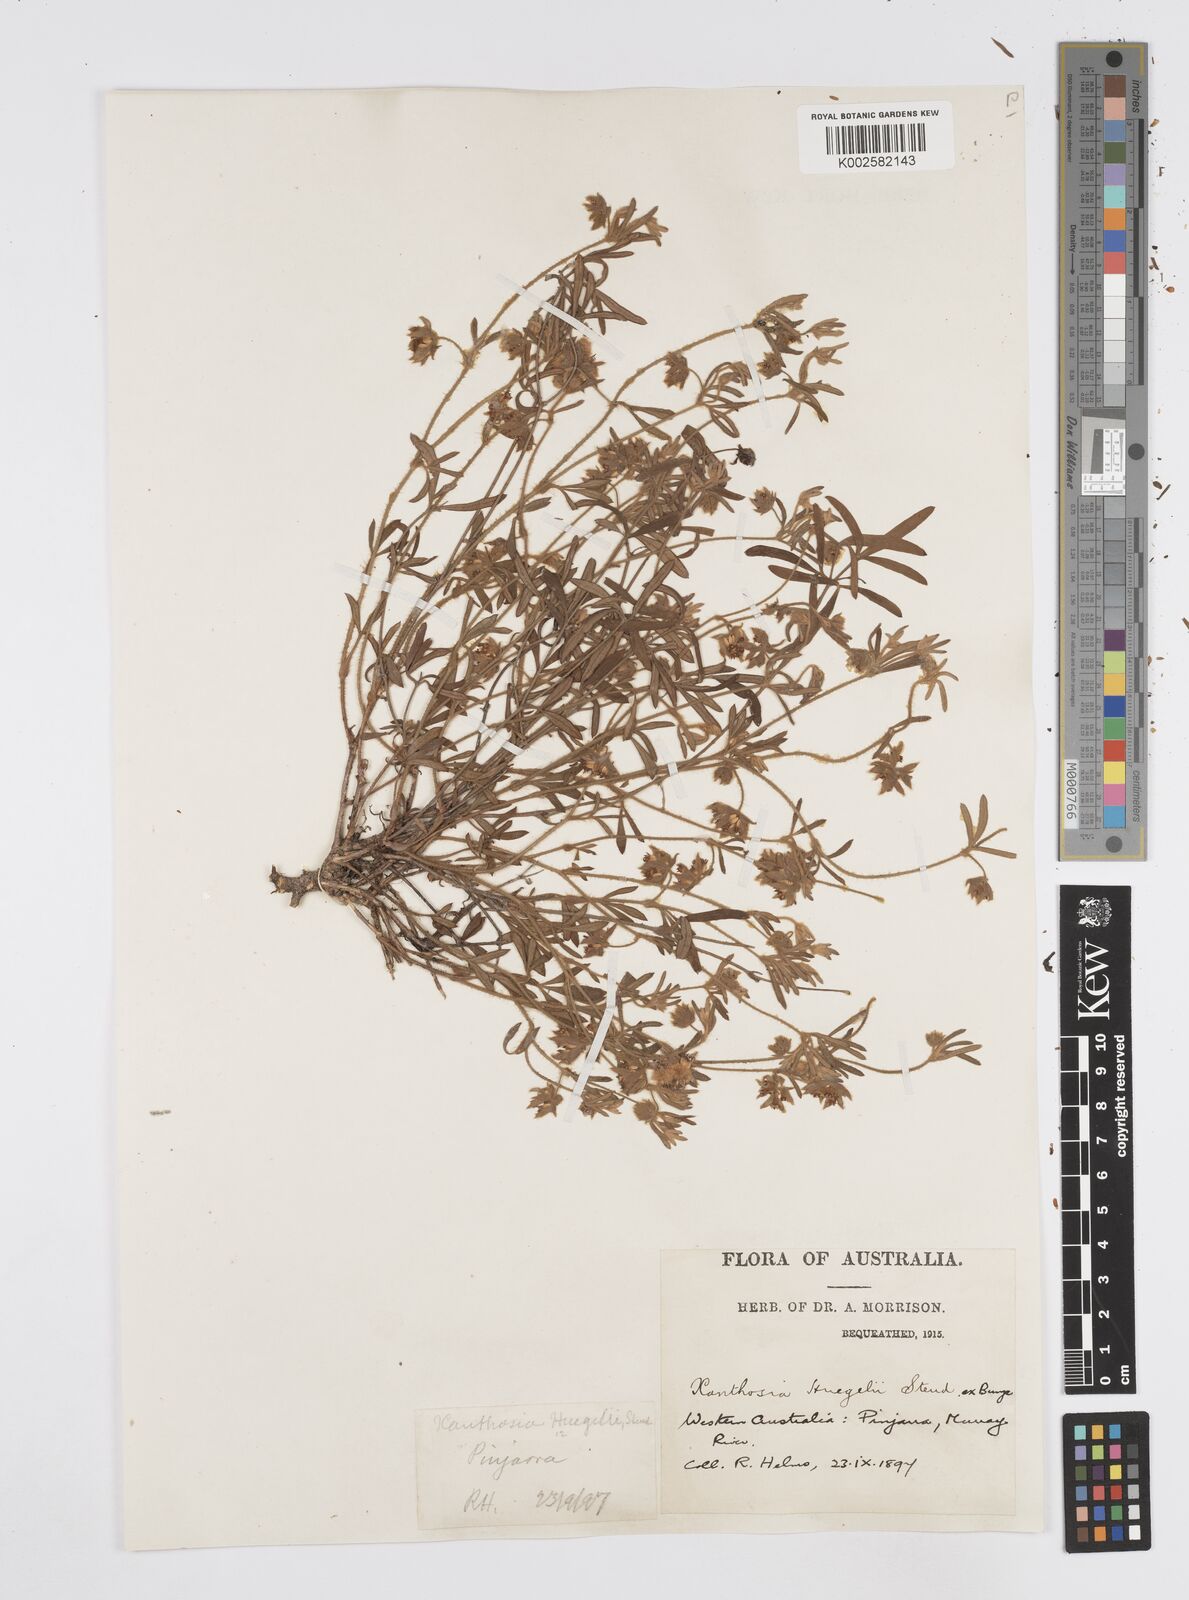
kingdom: Plantae
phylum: Tracheophyta
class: Magnoliopsida
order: Apiales
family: Apiaceae
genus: Xanthosia
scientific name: Xanthosia huegelii
